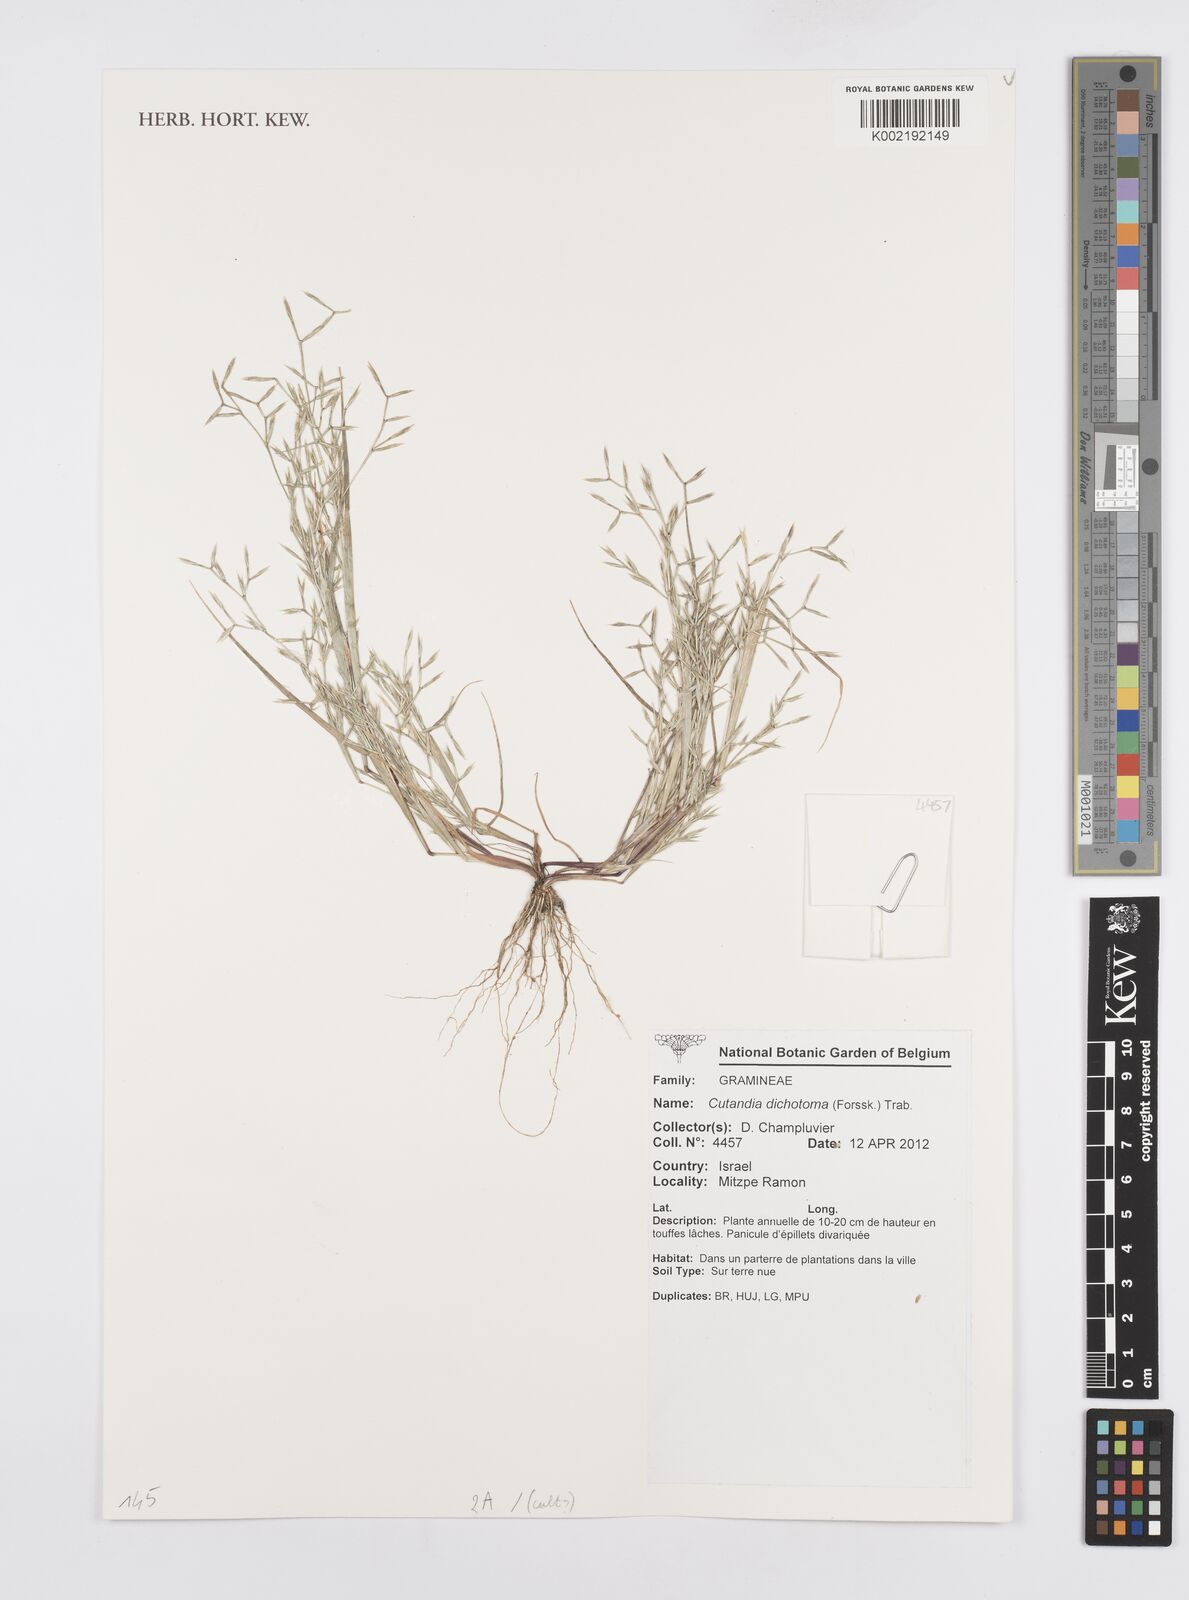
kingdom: Plantae
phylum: Tracheophyta
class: Liliopsida
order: Poales
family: Poaceae
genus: Cutandia
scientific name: Cutandia dichotoma
